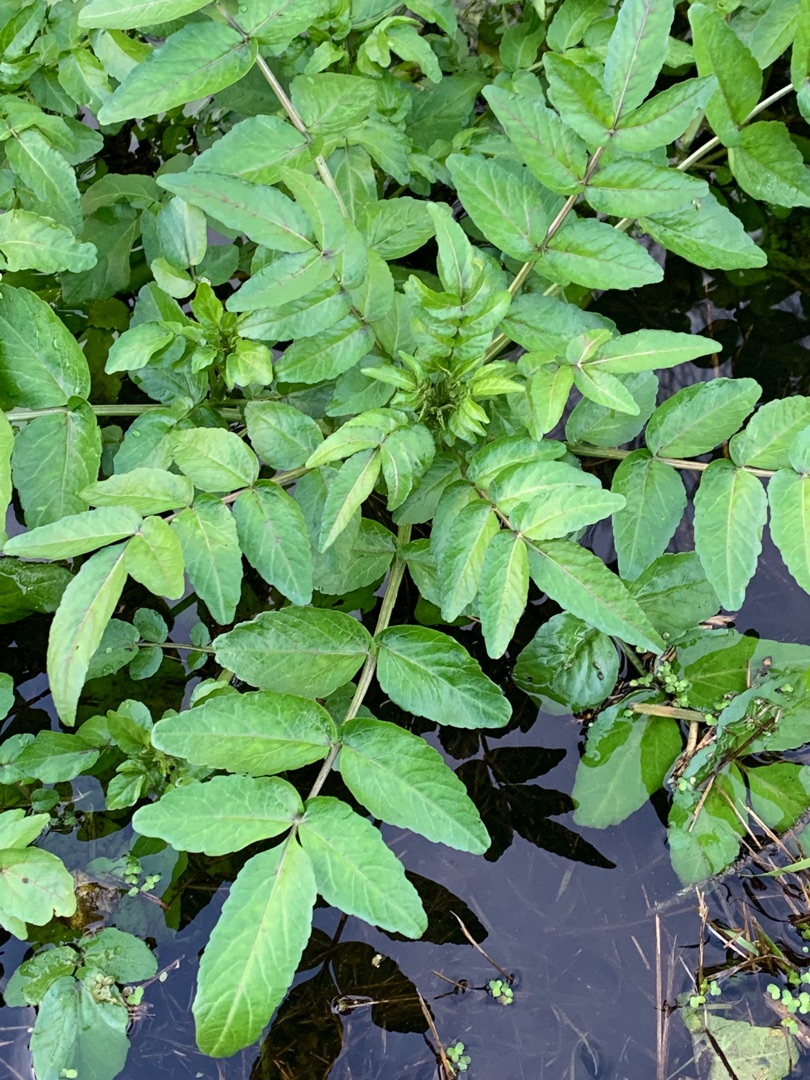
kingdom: Plantae
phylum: Tracheophyta
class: Magnoliopsida
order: Apiales
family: Apiaceae
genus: Berula
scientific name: Berula erecta
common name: Sideskærm
